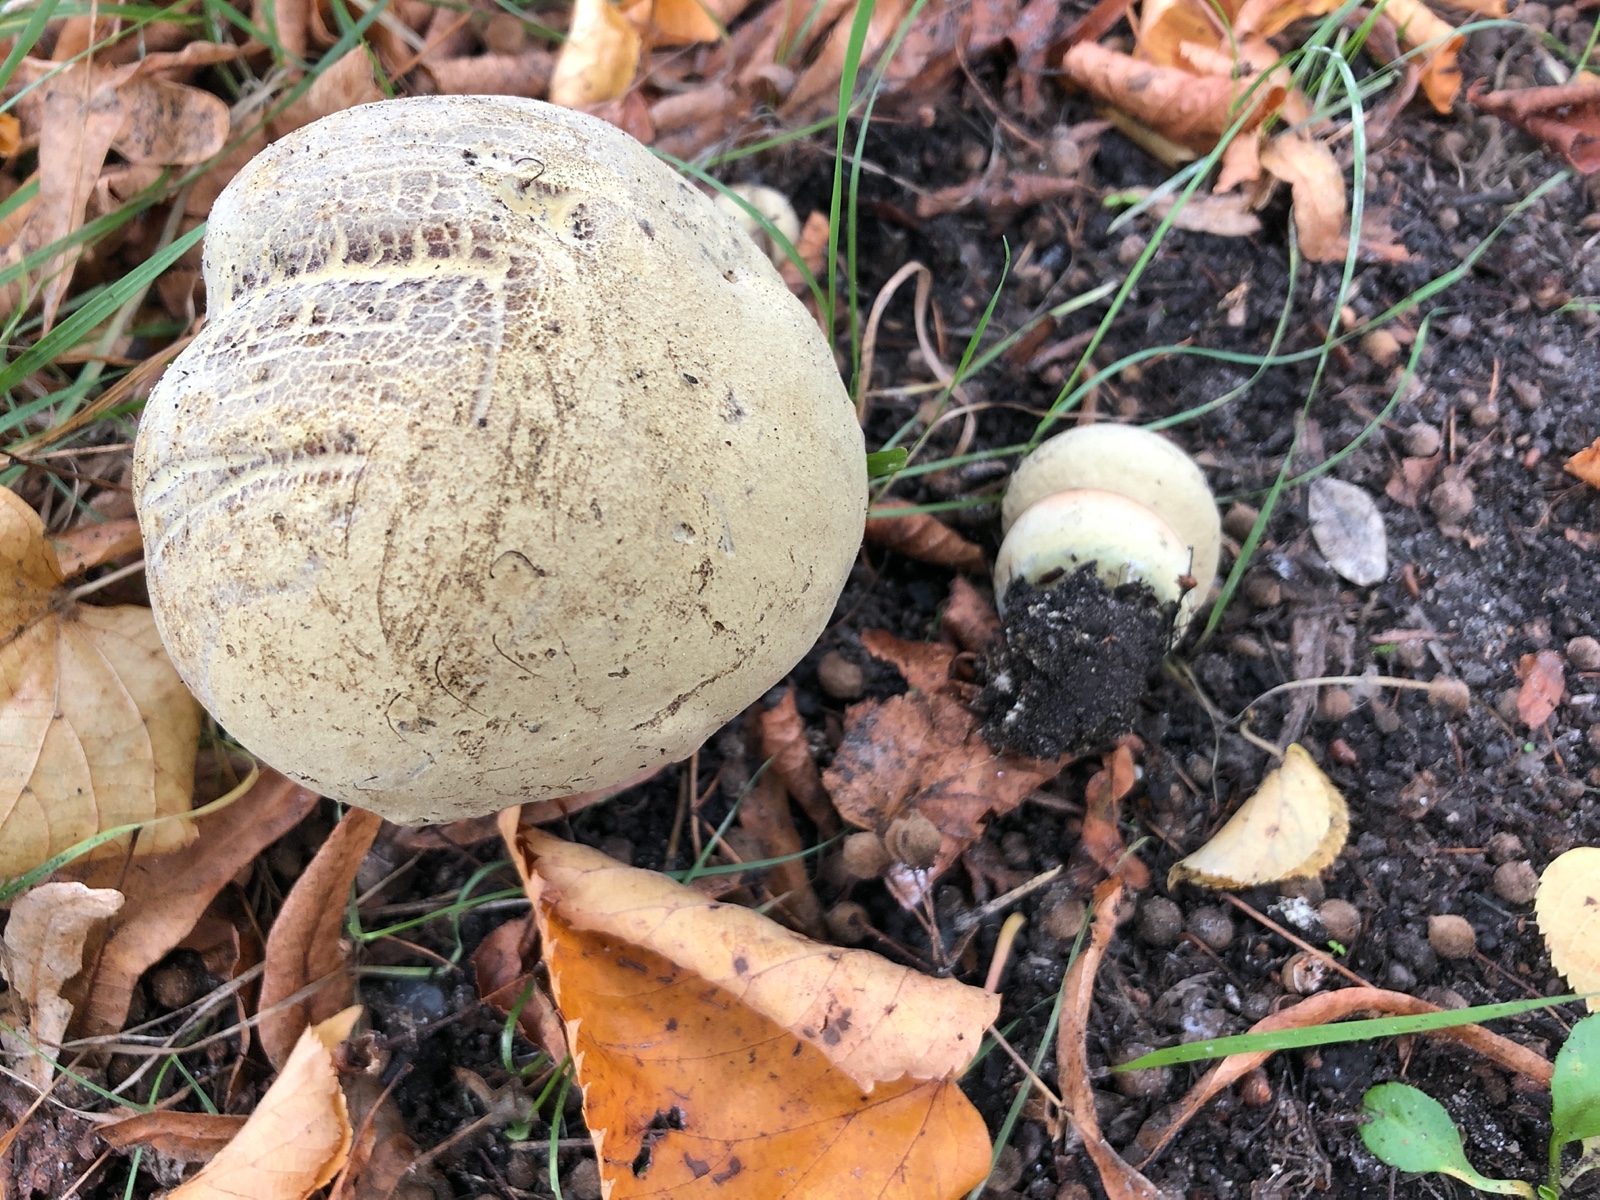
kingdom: Fungi
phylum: Basidiomycota
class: Agaricomycetes
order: Boletales
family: Boletaceae
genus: Suillellus
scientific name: Suillellus luridus
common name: netstokket indigorørhat
